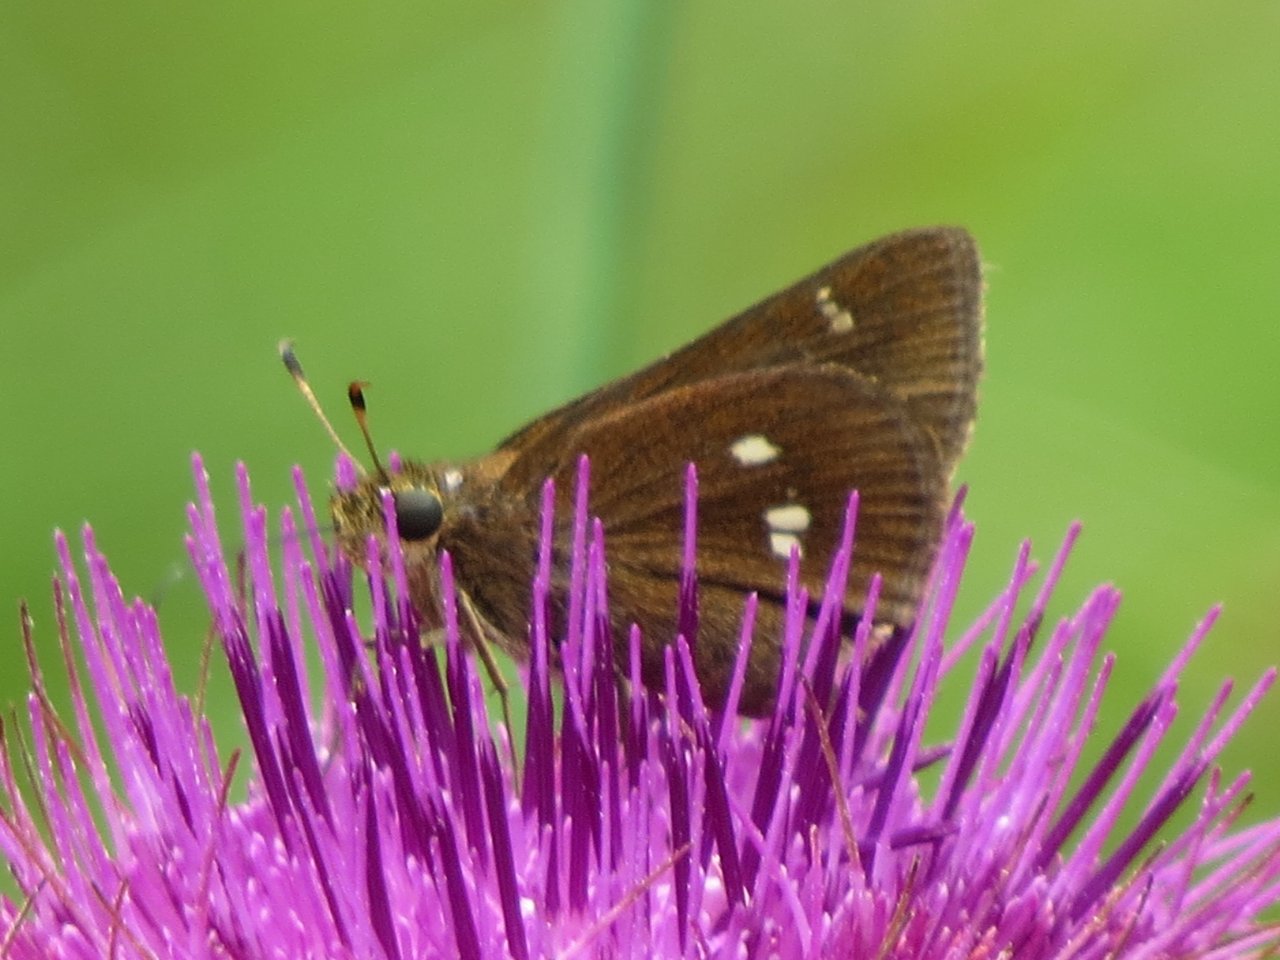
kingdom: Animalia
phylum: Arthropoda
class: Insecta
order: Lepidoptera
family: Hesperiidae
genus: Oligoria
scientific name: Oligoria maculata
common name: Twin-spot Skipper
